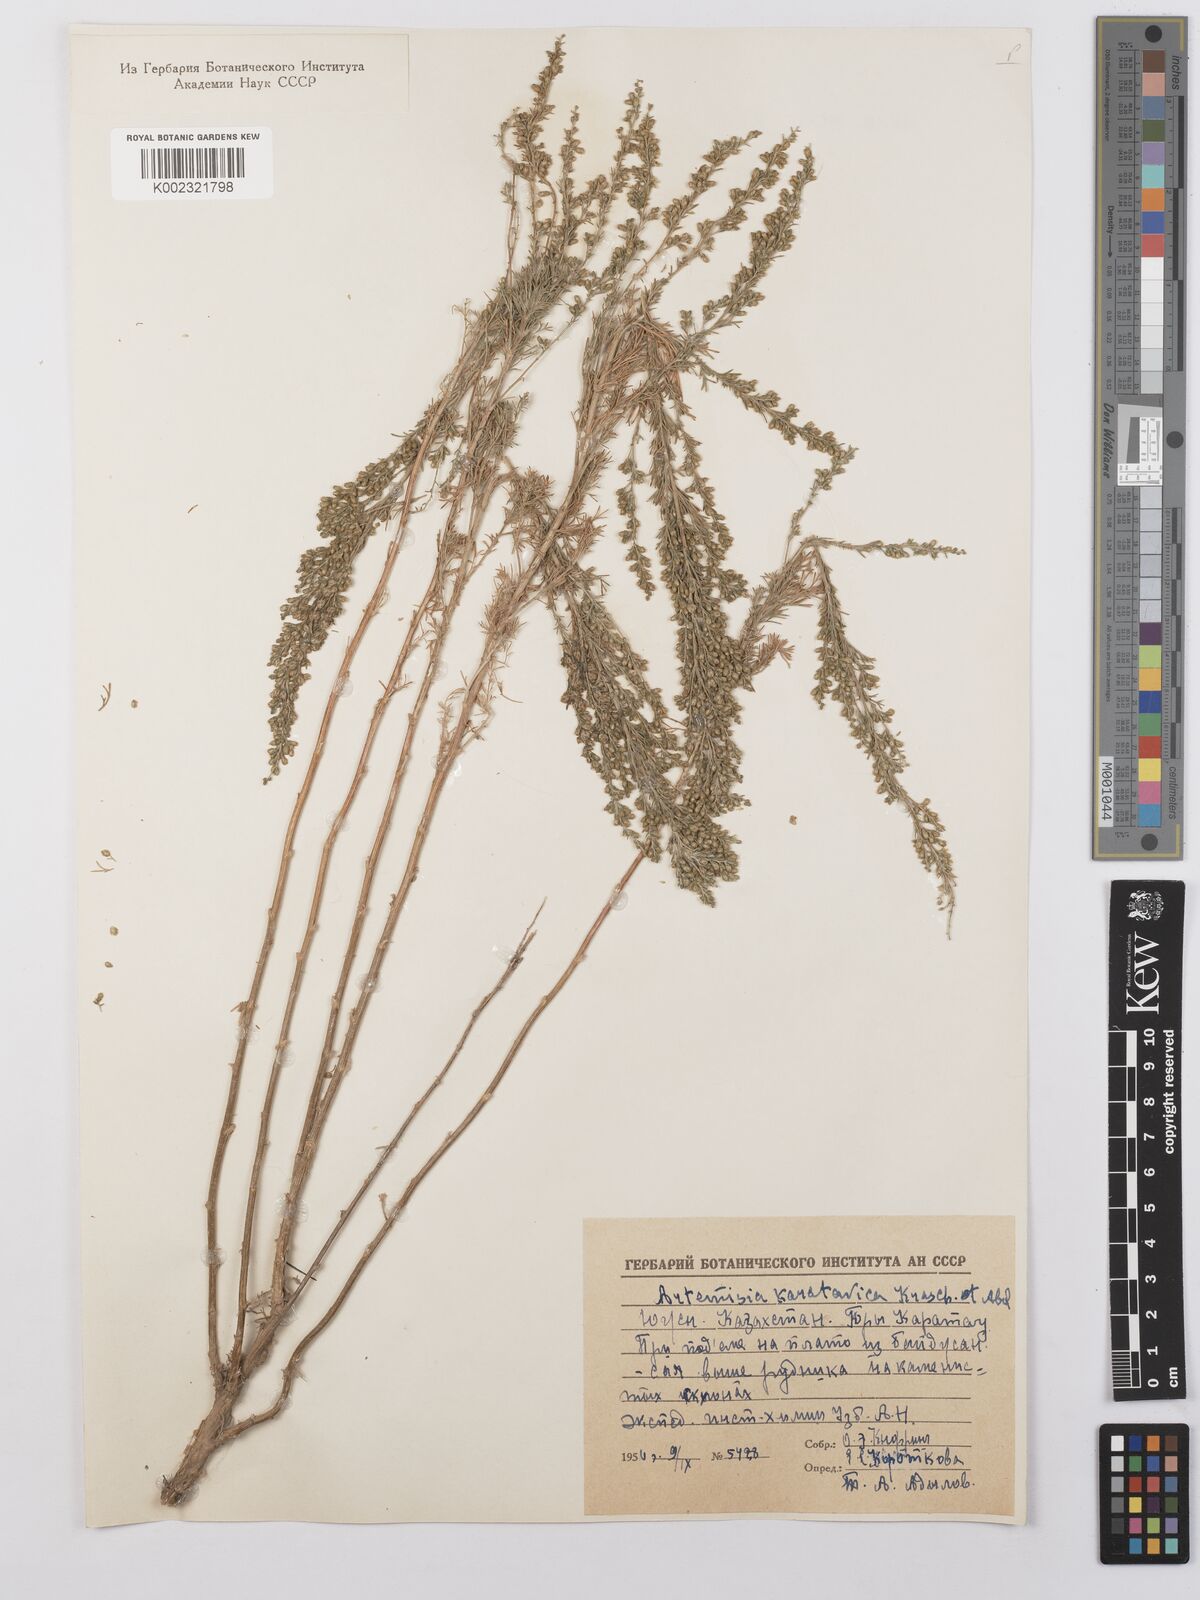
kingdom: Plantae
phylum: Tracheophyta
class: Magnoliopsida
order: Asterales
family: Asteraceae
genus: Artemisia
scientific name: Artemisia karatavica
